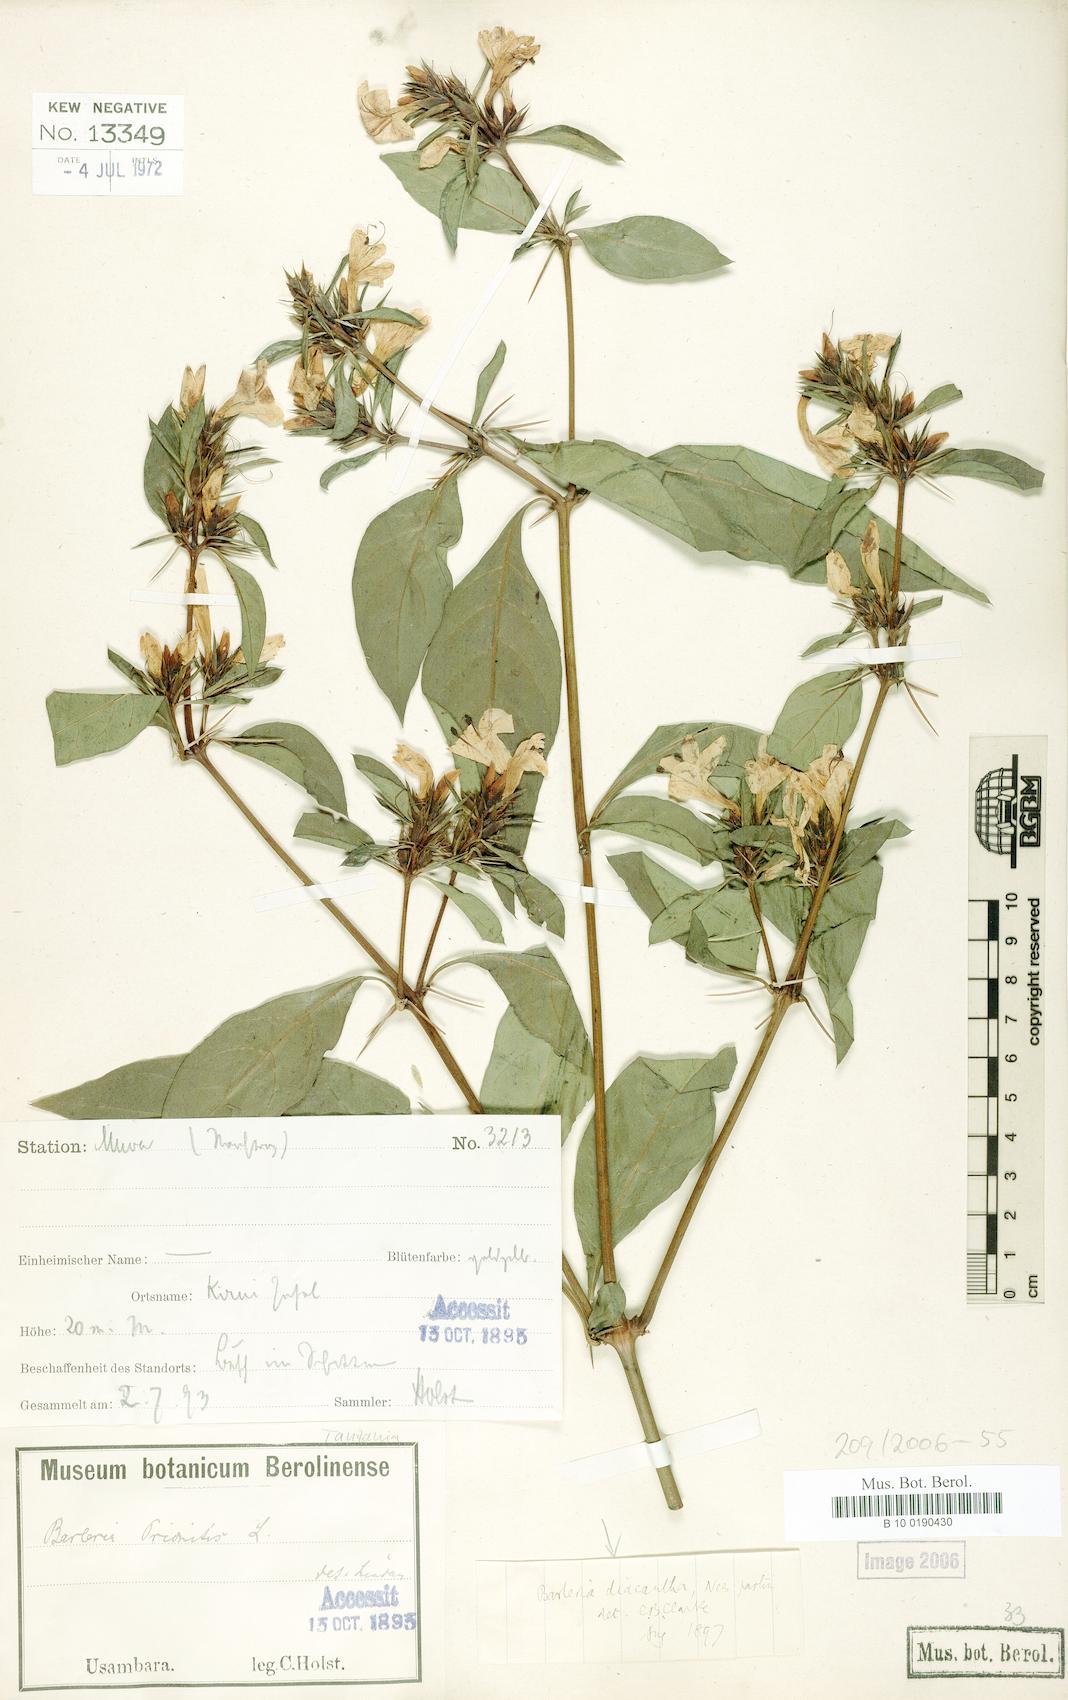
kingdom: Plantae
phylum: Tracheophyta
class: Magnoliopsida
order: Lamiales
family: Acanthaceae
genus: Barleria
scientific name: Barleria trispinosa
